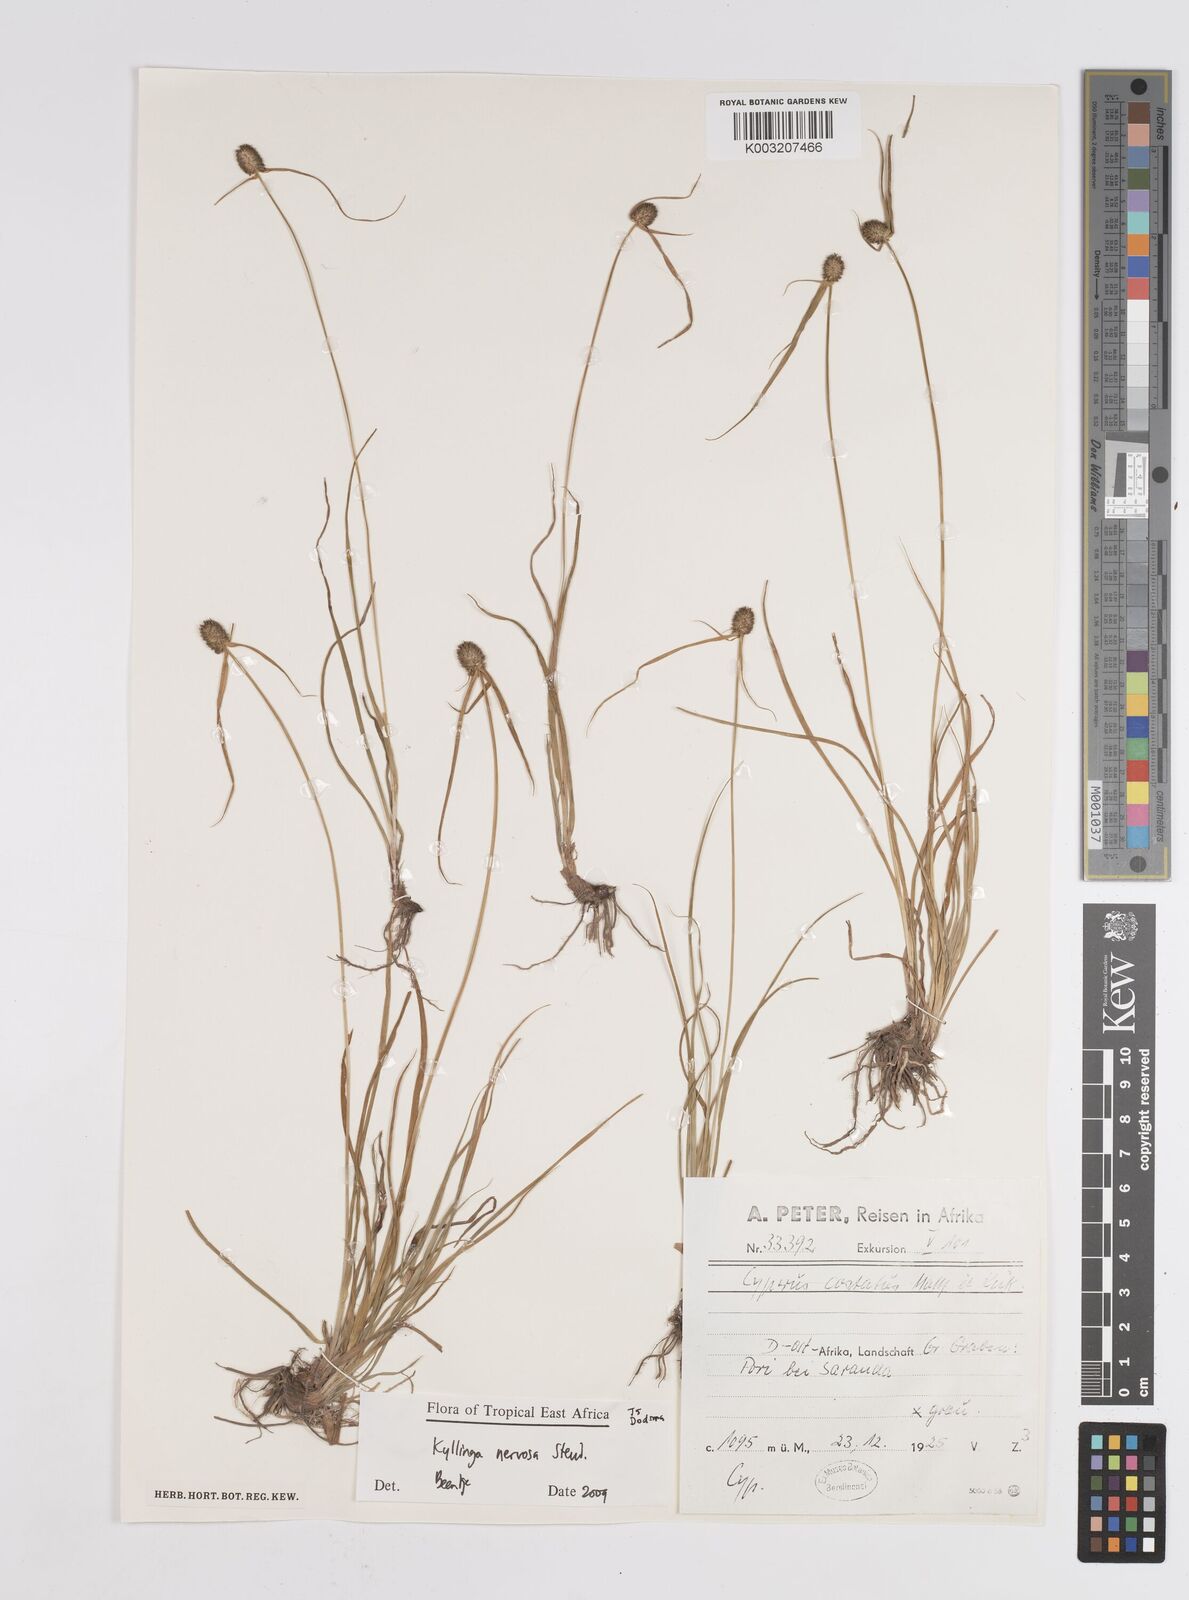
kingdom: Plantae
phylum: Tracheophyta
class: Liliopsida
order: Poales
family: Cyperaceae
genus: Cyperus
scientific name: Cyperus
